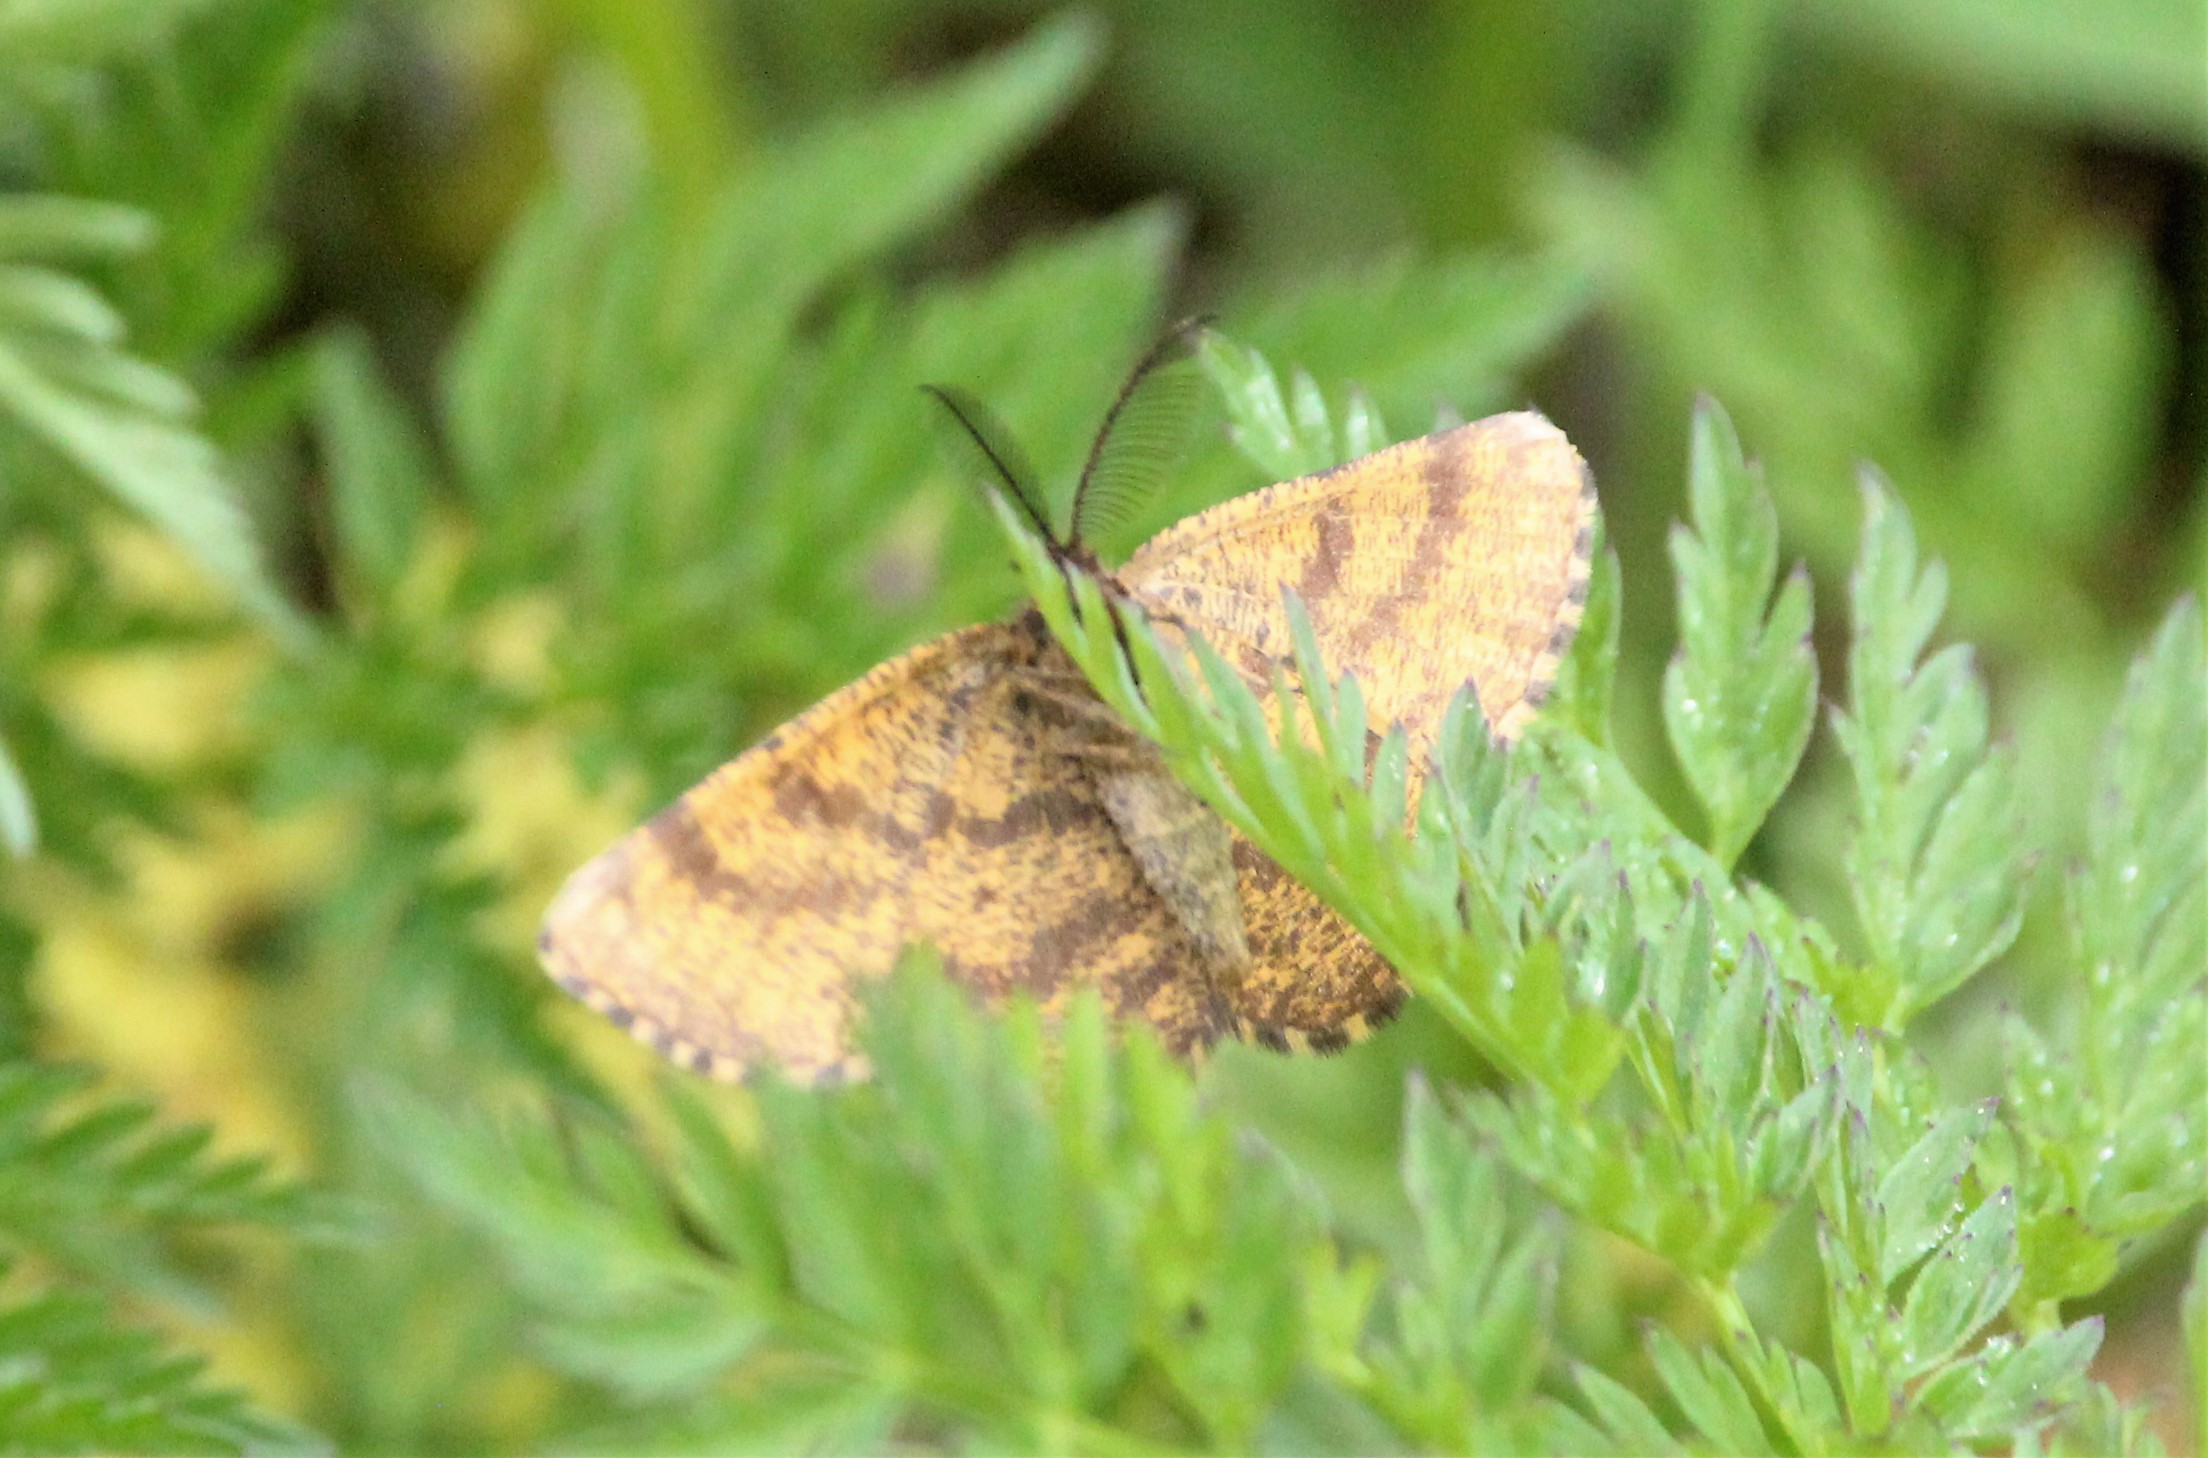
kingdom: Animalia
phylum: Arthropoda
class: Insecta
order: Lepidoptera
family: Geometridae
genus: Ematurga
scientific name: Ematurga atomaria
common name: Common heath
